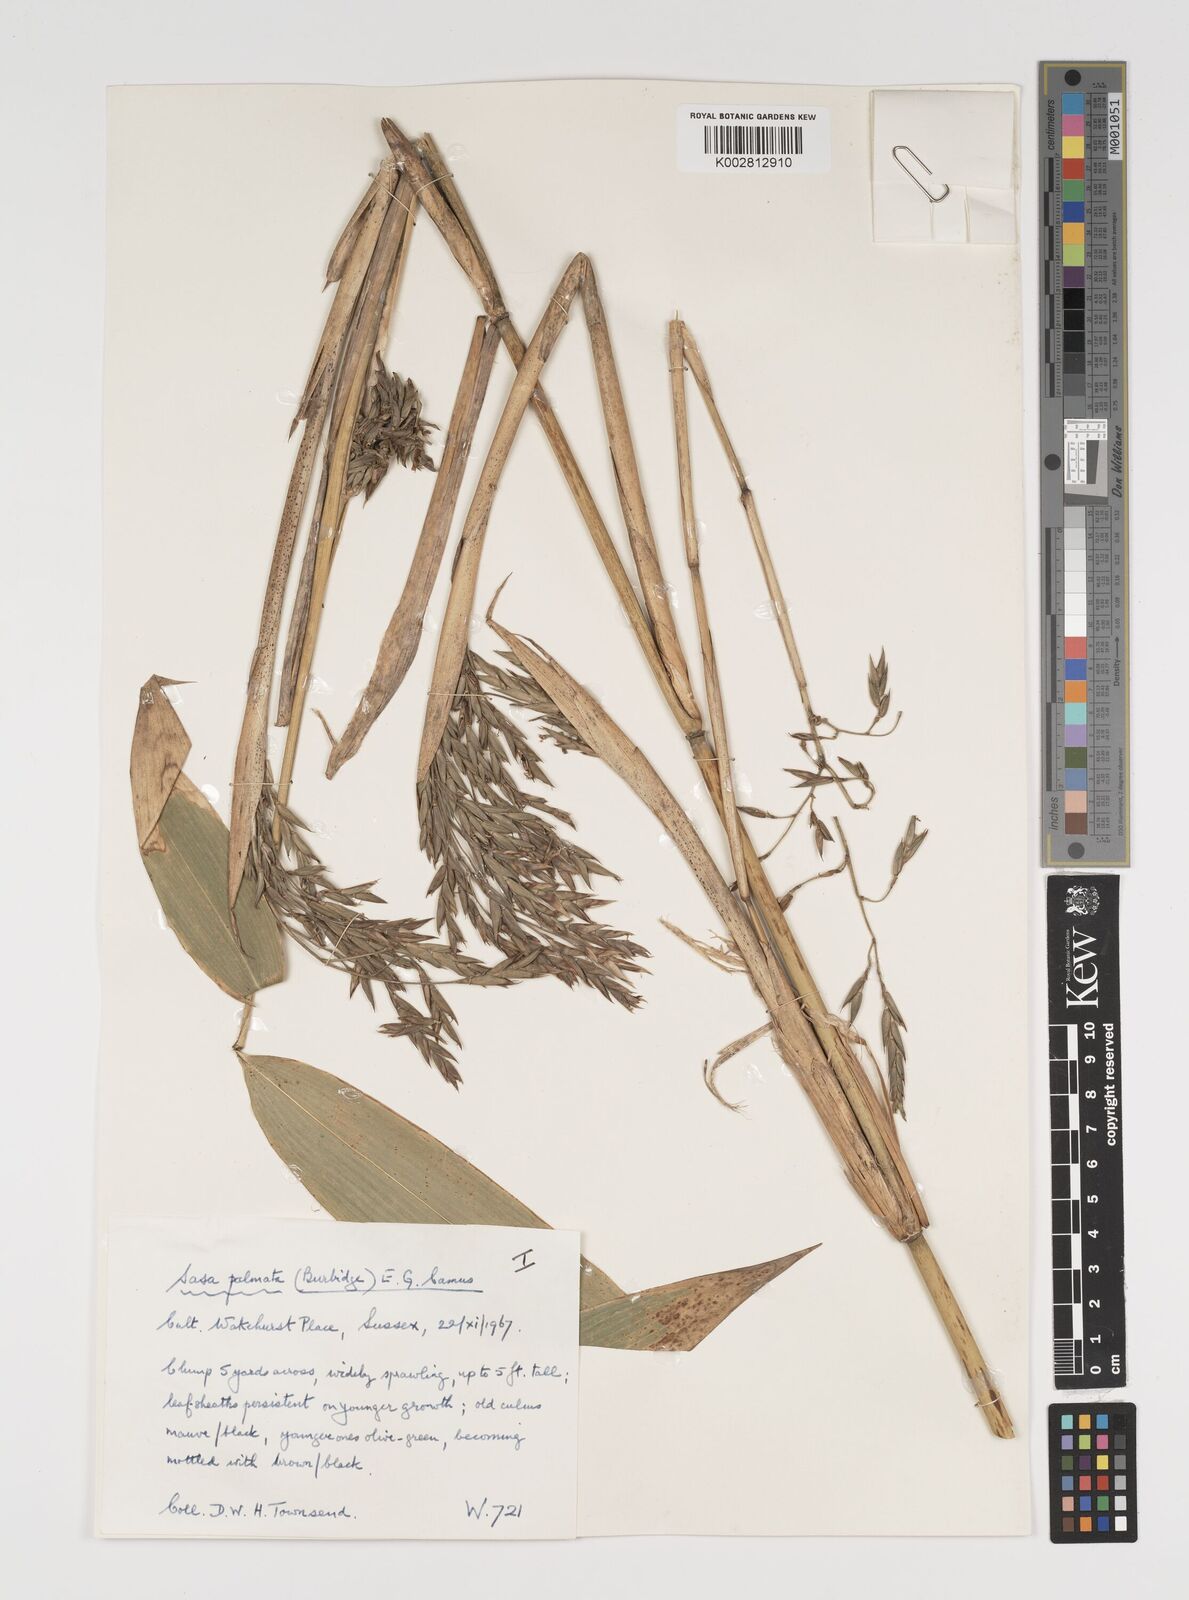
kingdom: Plantae
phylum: Tracheophyta
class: Liliopsida
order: Poales
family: Poaceae
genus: Sasa
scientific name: Sasa palmata
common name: Broad-leaved bamboo
